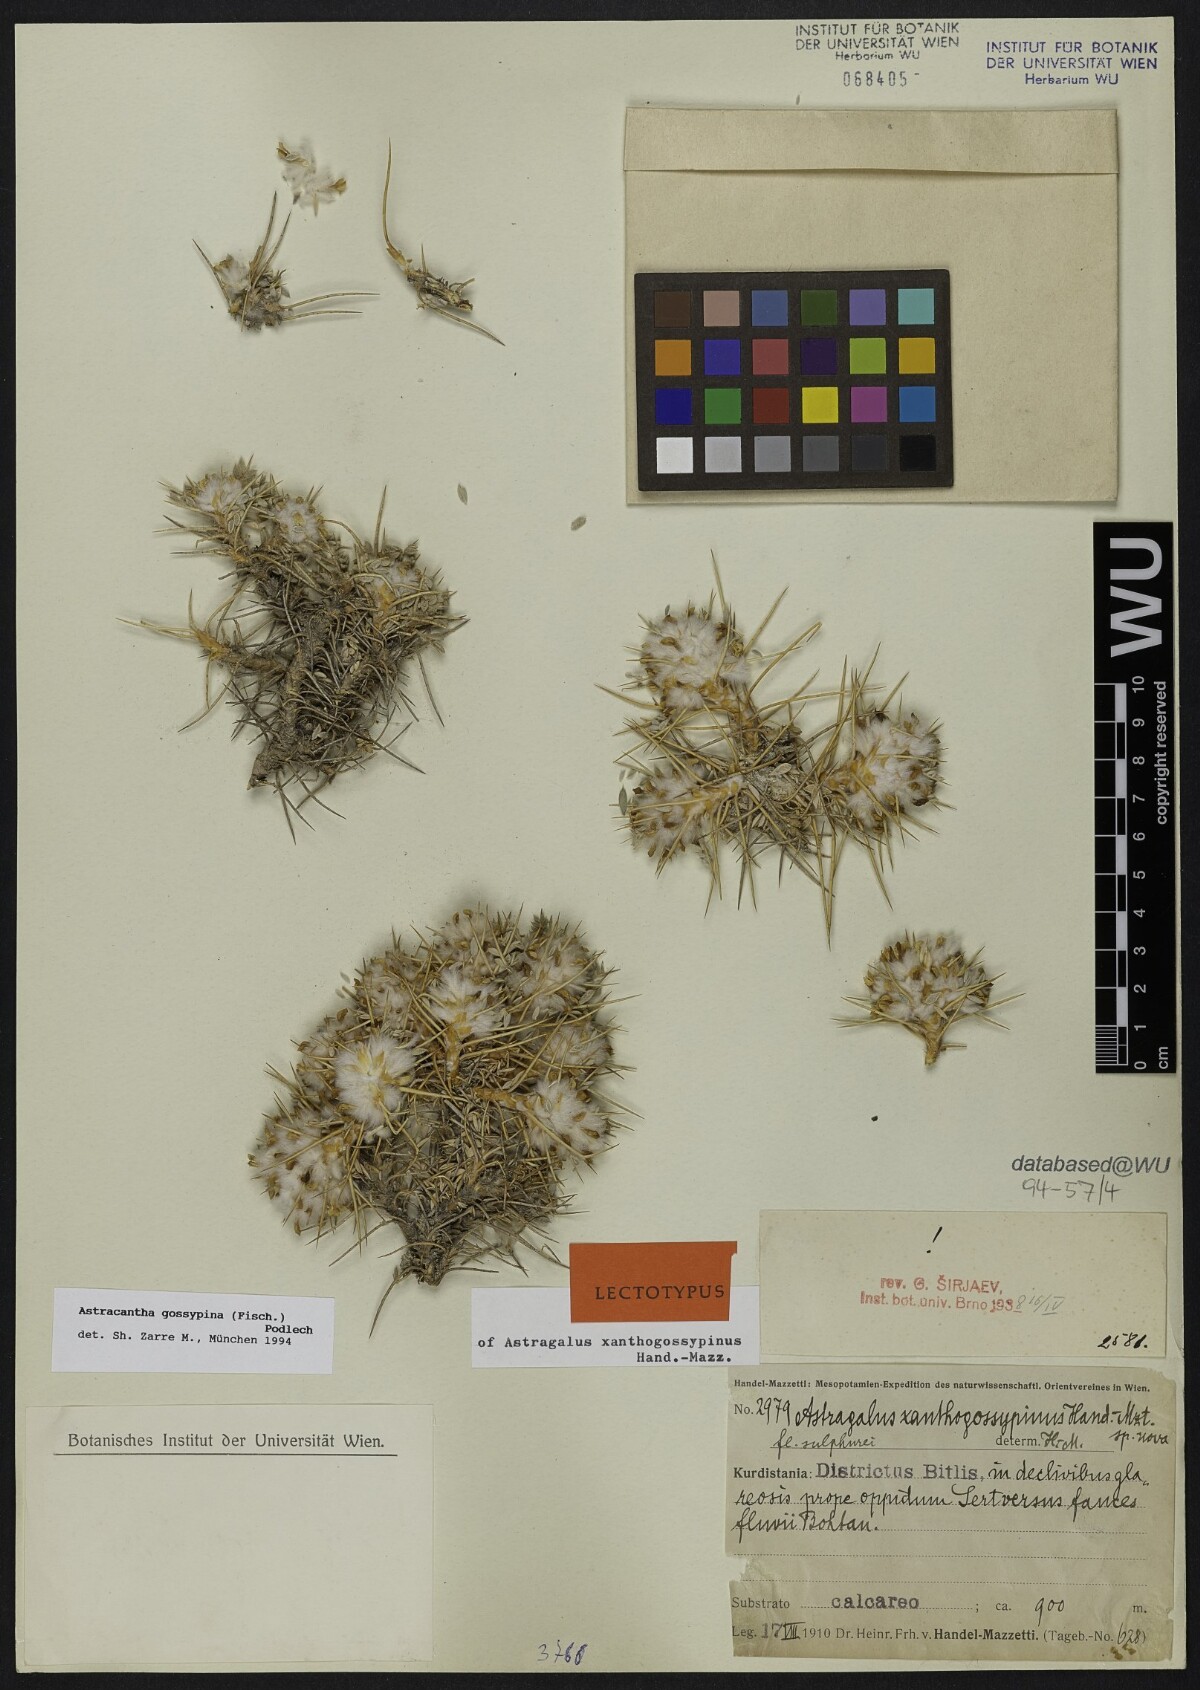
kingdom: Plantae
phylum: Tracheophyta
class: Magnoliopsida
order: Fabales
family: Fabaceae
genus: Astragalus
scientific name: Astragalus gossypinus
